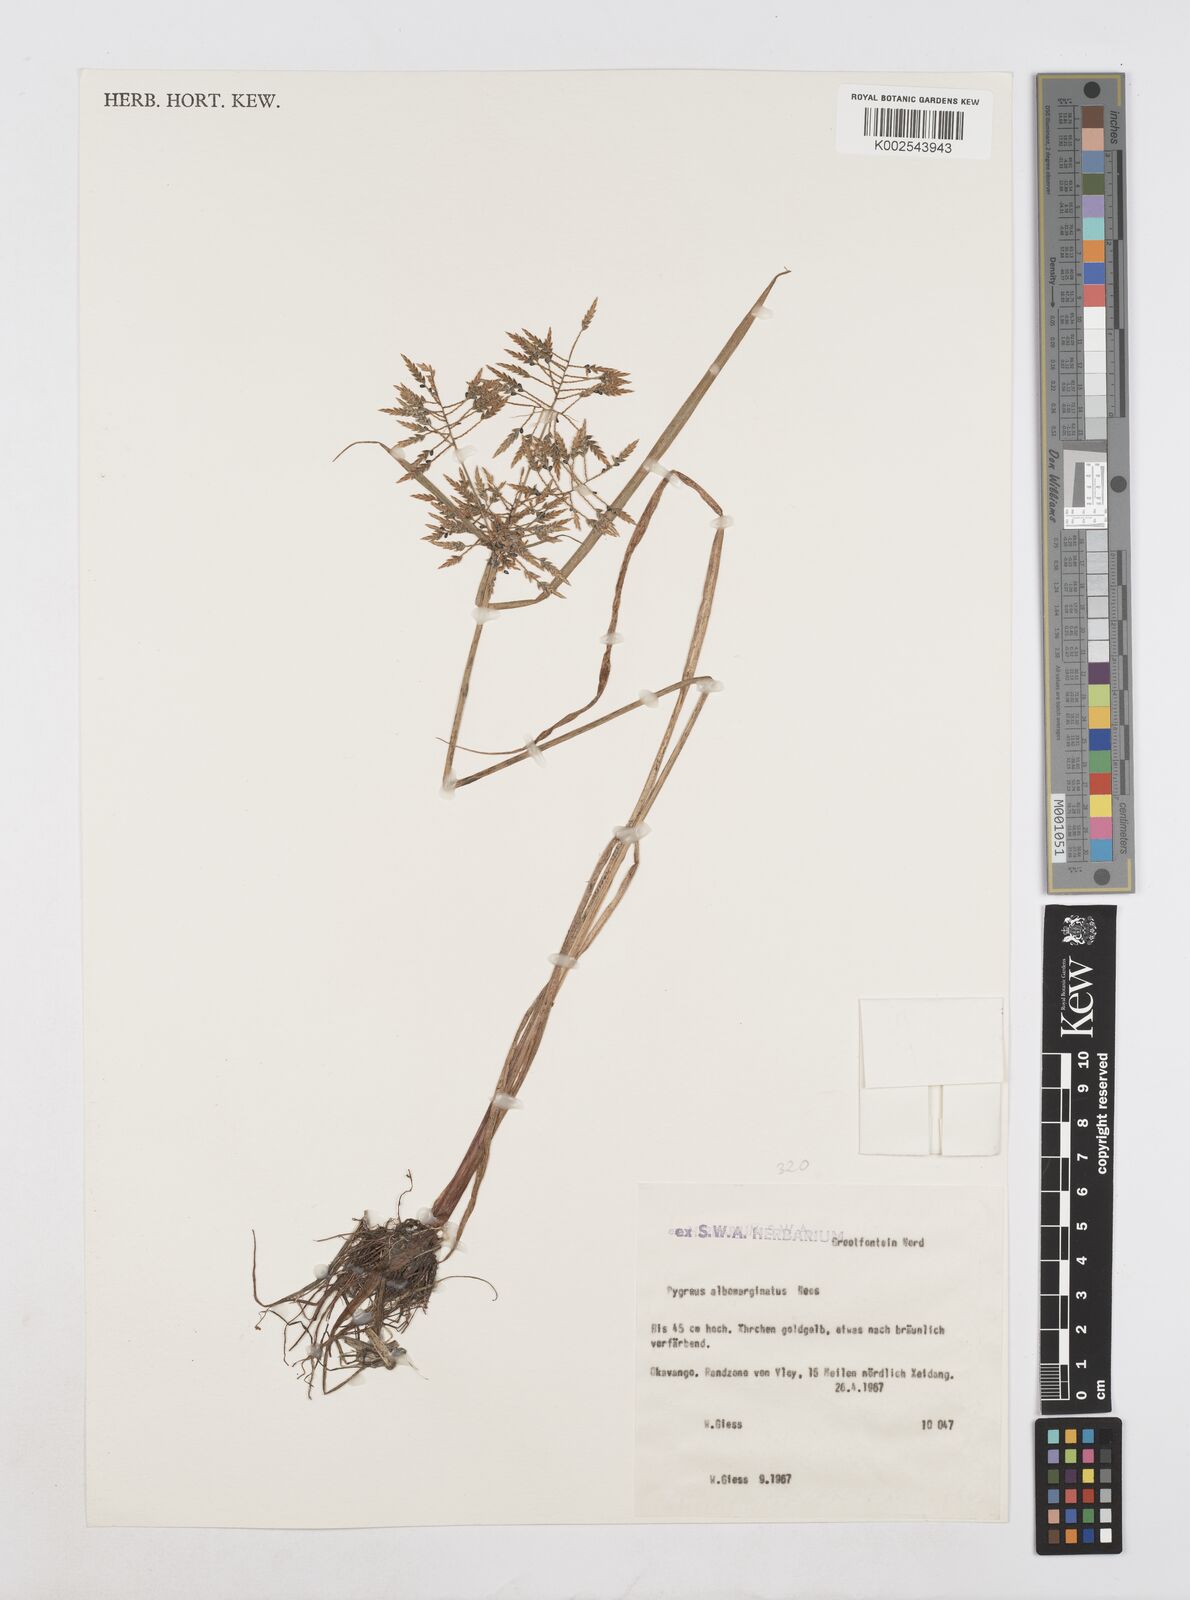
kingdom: Plantae
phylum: Tracheophyta
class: Liliopsida
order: Poales
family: Cyperaceae
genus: Cyperus
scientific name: Cyperus macrostachyos
